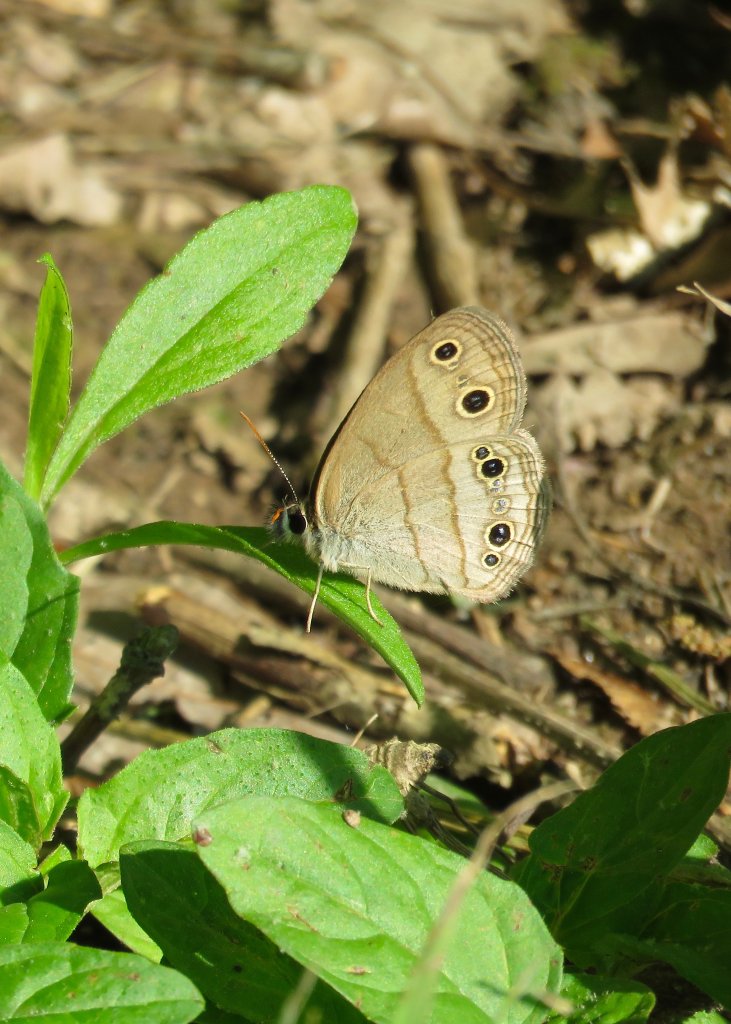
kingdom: Animalia
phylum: Arthropoda
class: Insecta
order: Lepidoptera
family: Nymphalidae
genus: Euptychia
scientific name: Euptychia cymela
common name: Little Wood Satyr
